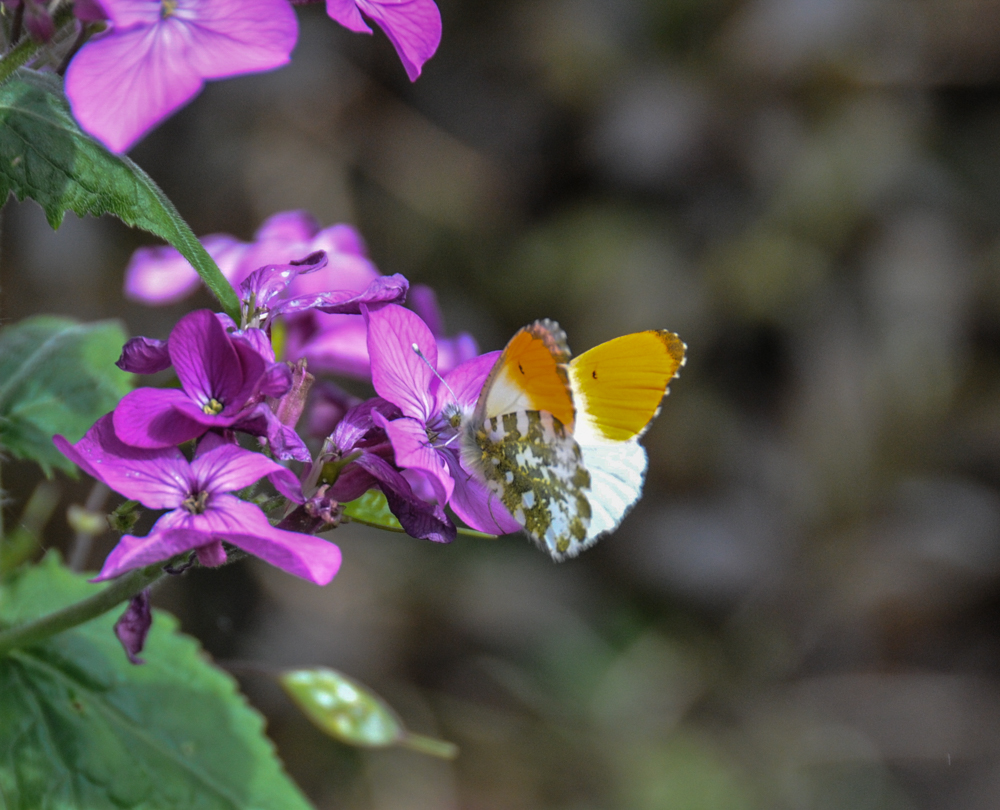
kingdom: Animalia
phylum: Arthropoda
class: Insecta
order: Lepidoptera
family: Pieridae
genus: Anthocharis
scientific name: Anthocharis cardamines
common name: Orange-tip
